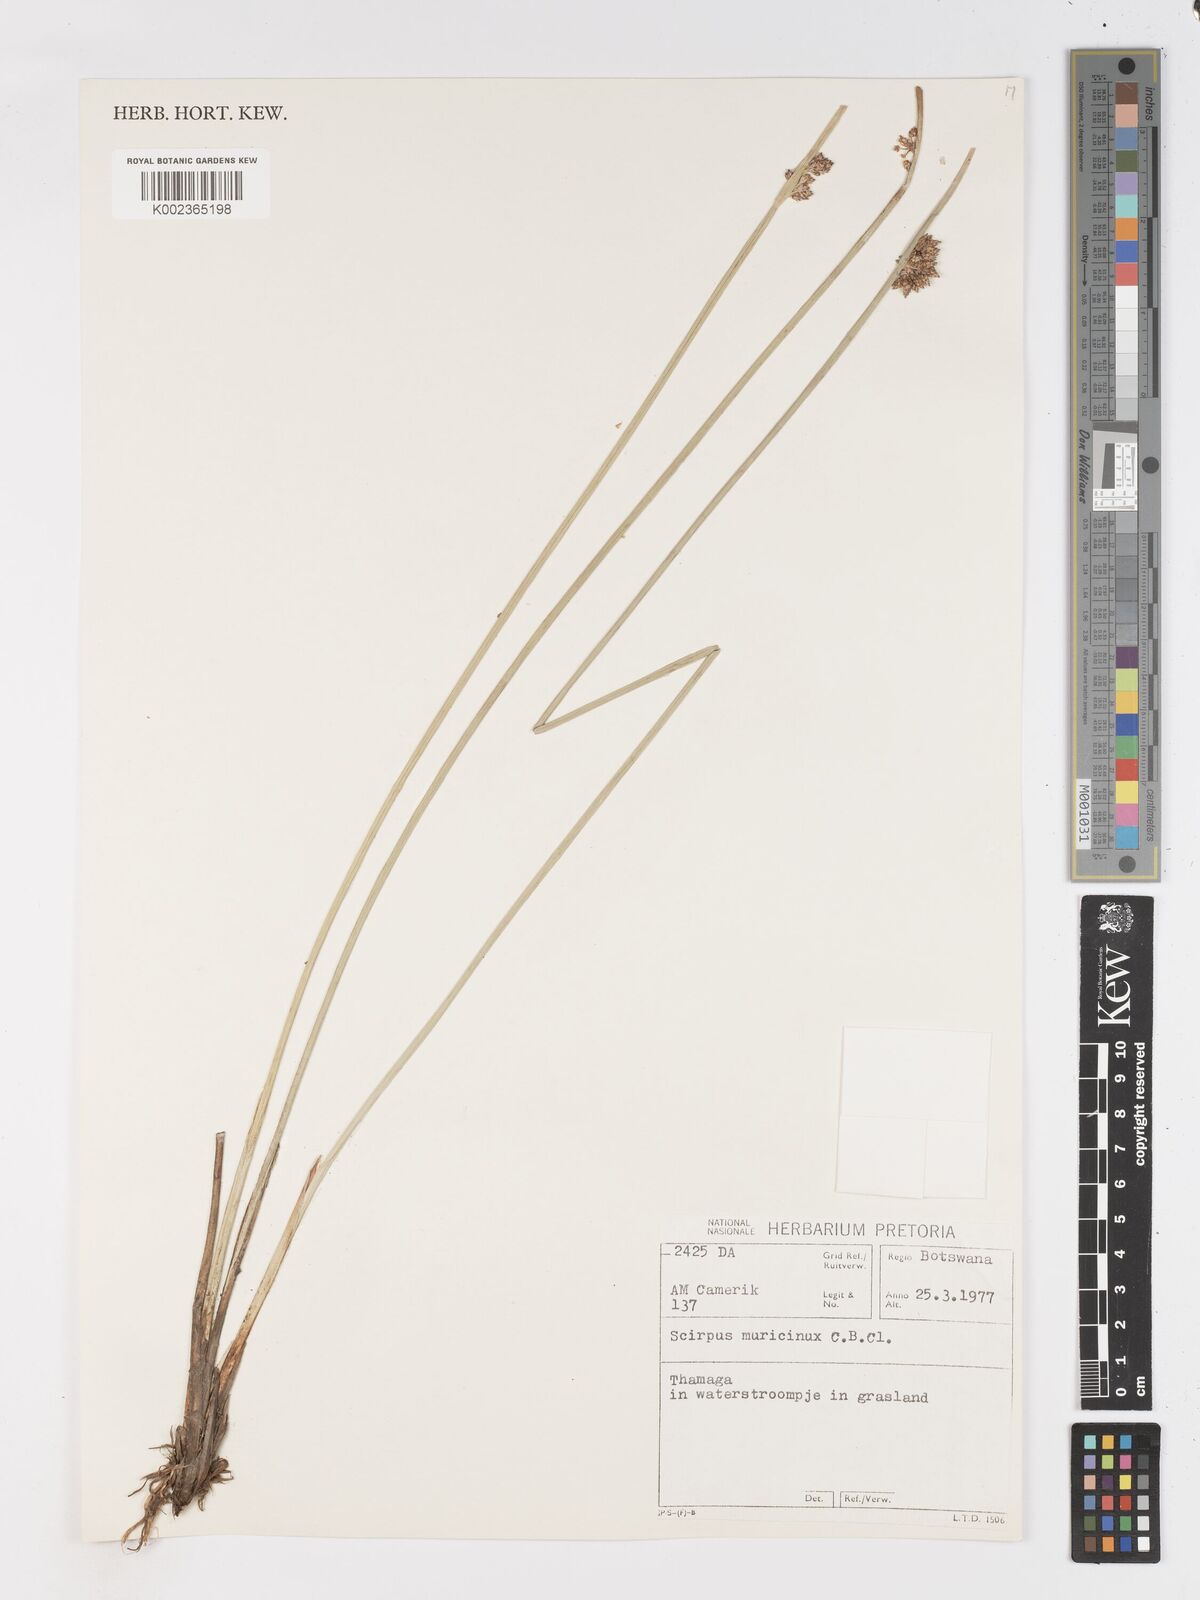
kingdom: Plantae
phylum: Tracheophyta
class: Liliopsida
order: Poales
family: Cyperaceae
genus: Schoenoplectiella
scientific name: Schoenoplectiella muricinux
